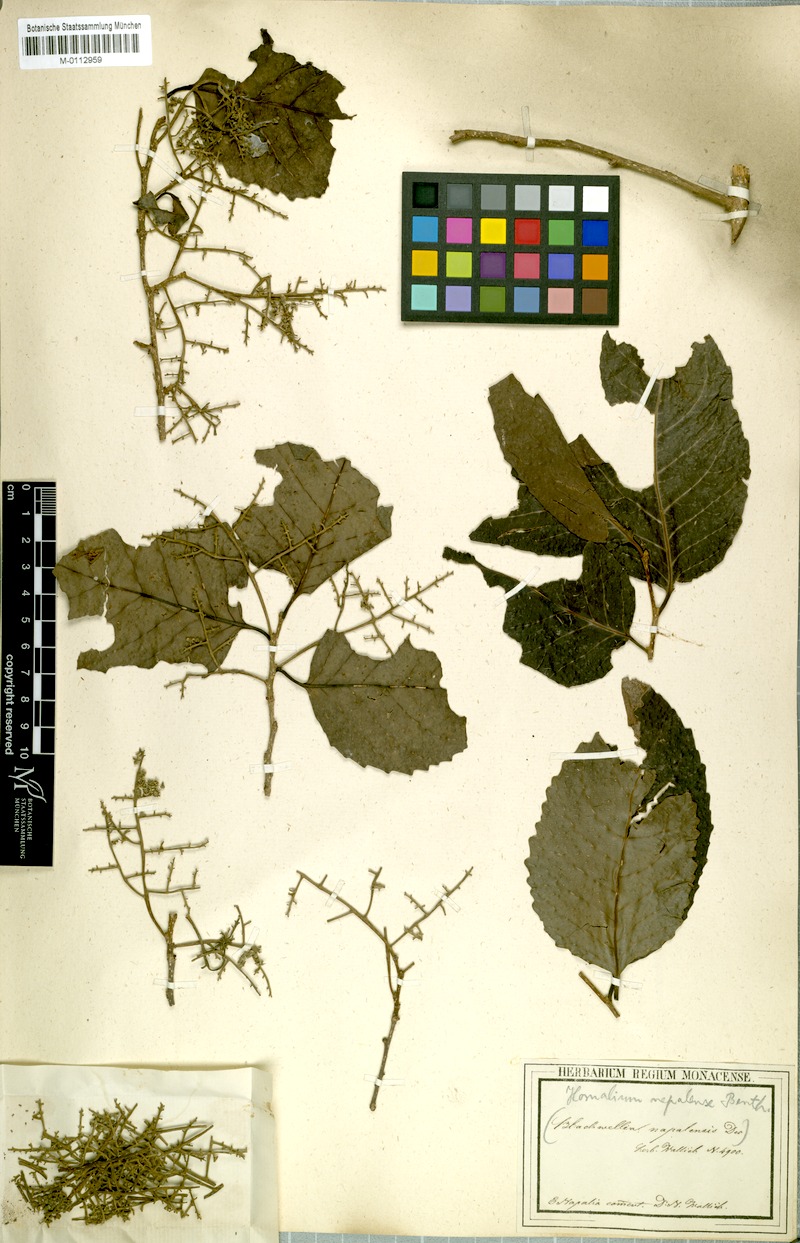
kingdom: Plantae
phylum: Tracheophyta
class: Magnoliopsida
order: Malpighiales
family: Salicaceae
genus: Homalium
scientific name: Homalium nepalense
